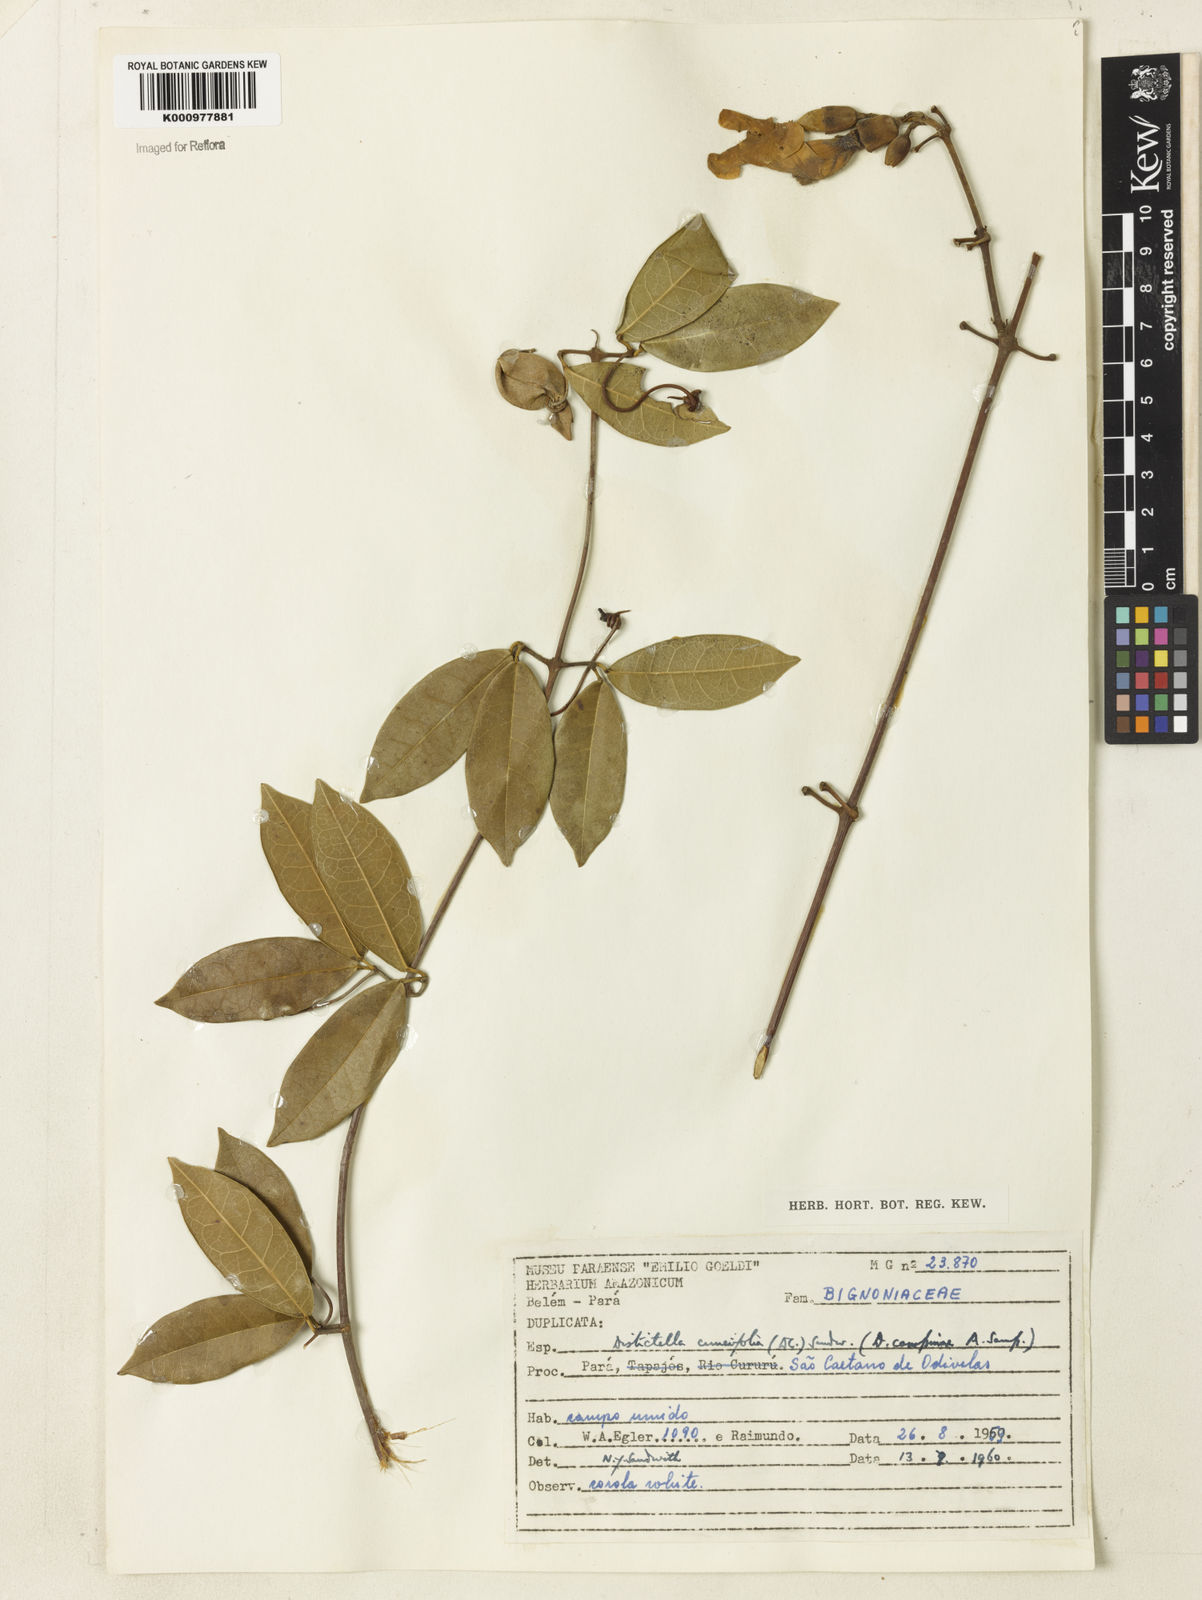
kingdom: Plantae
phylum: Tracheophyta
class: Magnoliopsida
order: Lamiales
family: Bignoniaceae
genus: Amphilophium
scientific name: Amphilophium cuneifolium
